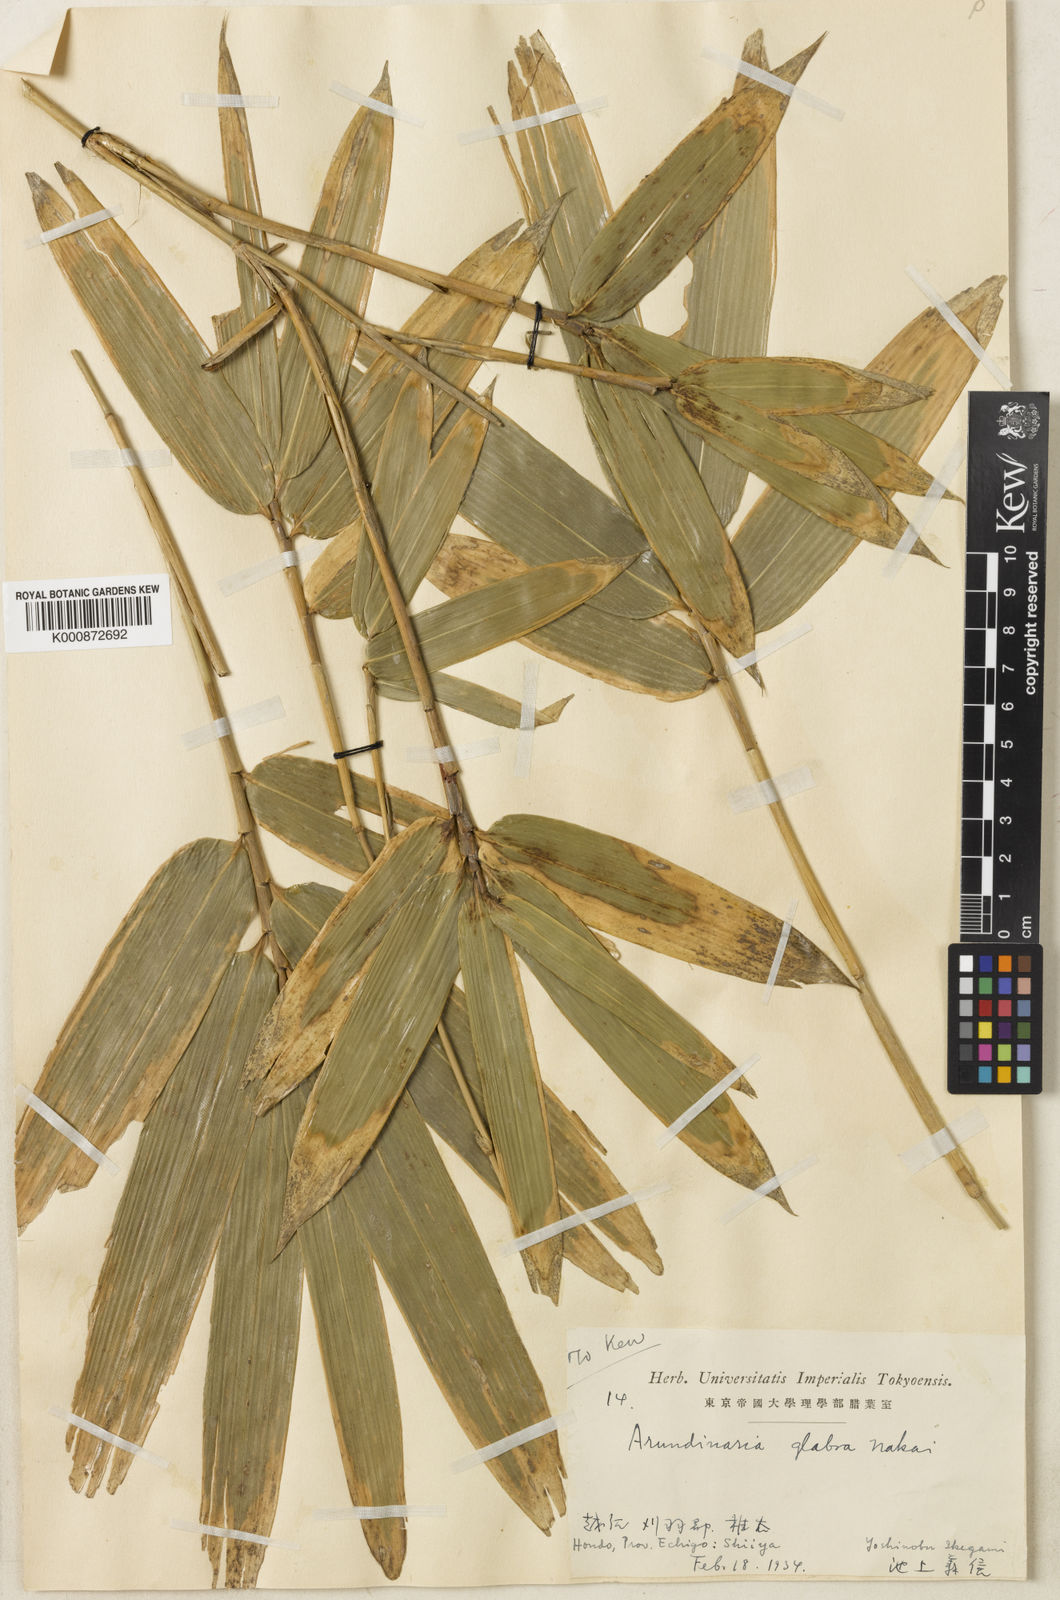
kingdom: Plantae
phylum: Tracheophyta
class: Liliopsida
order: Poales
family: Poaceae
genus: Sasaella
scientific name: Sasaella masamuneana
